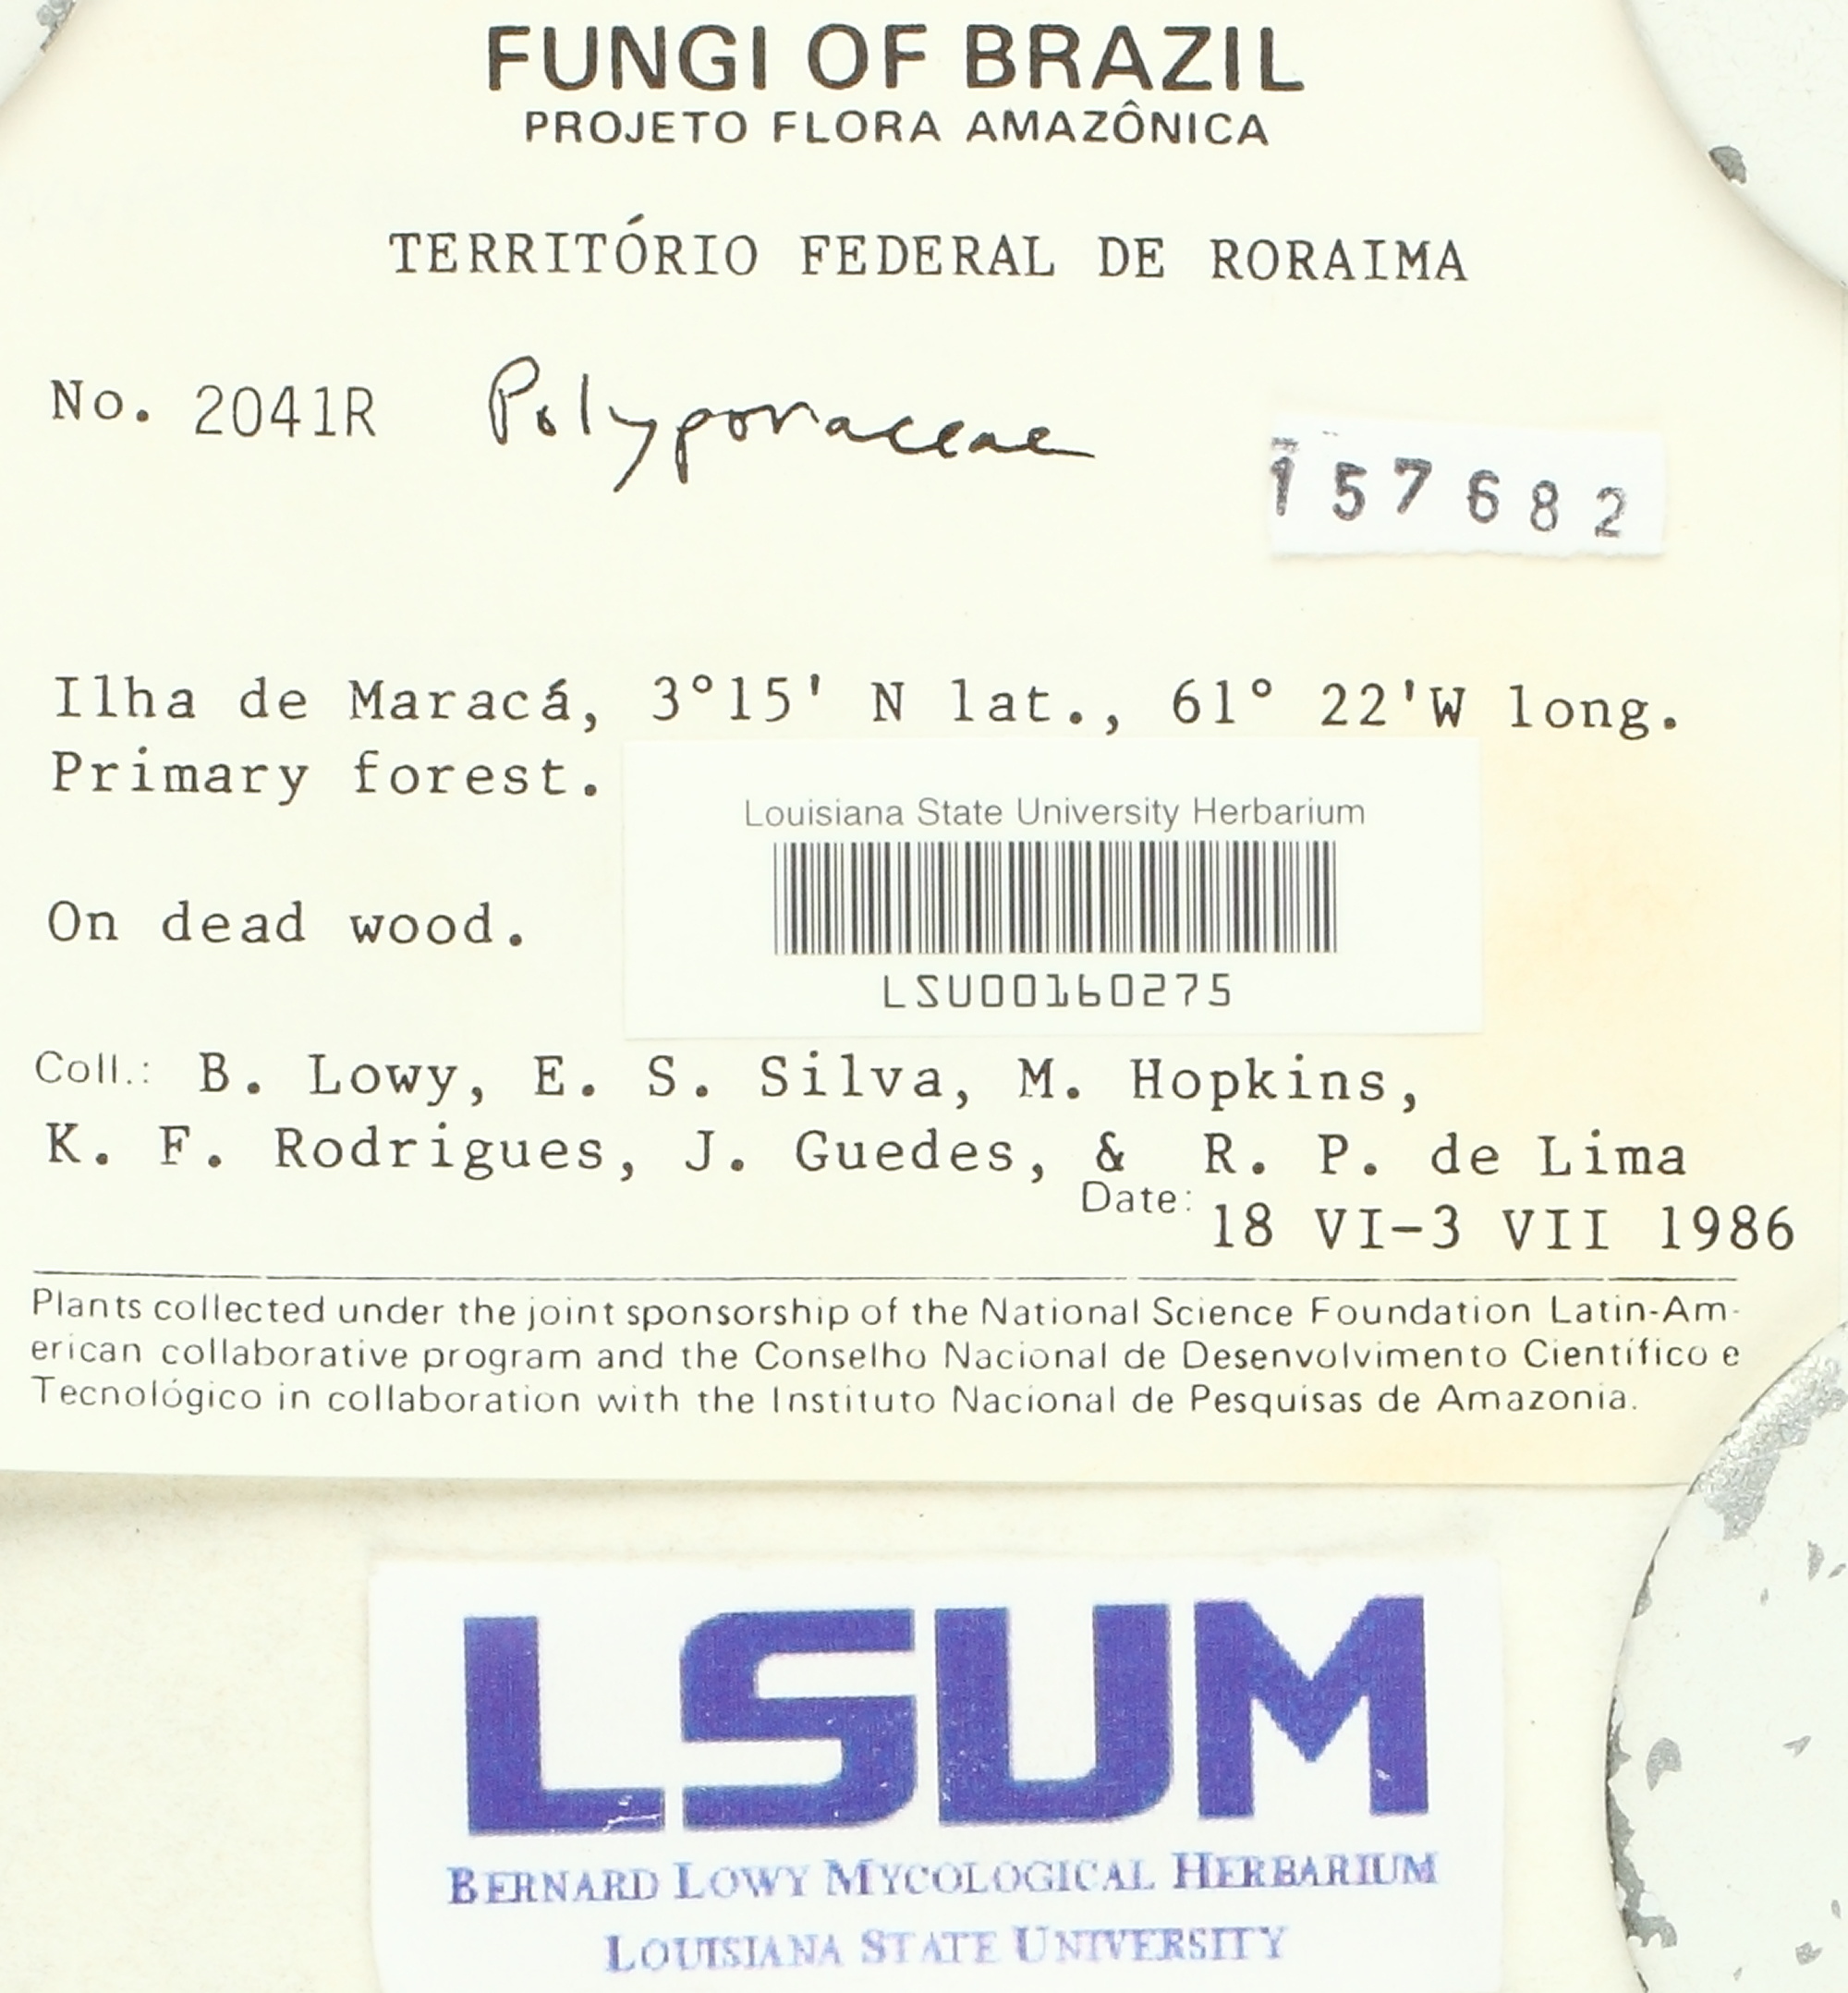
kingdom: Fungi
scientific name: Fungi
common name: Fungi
